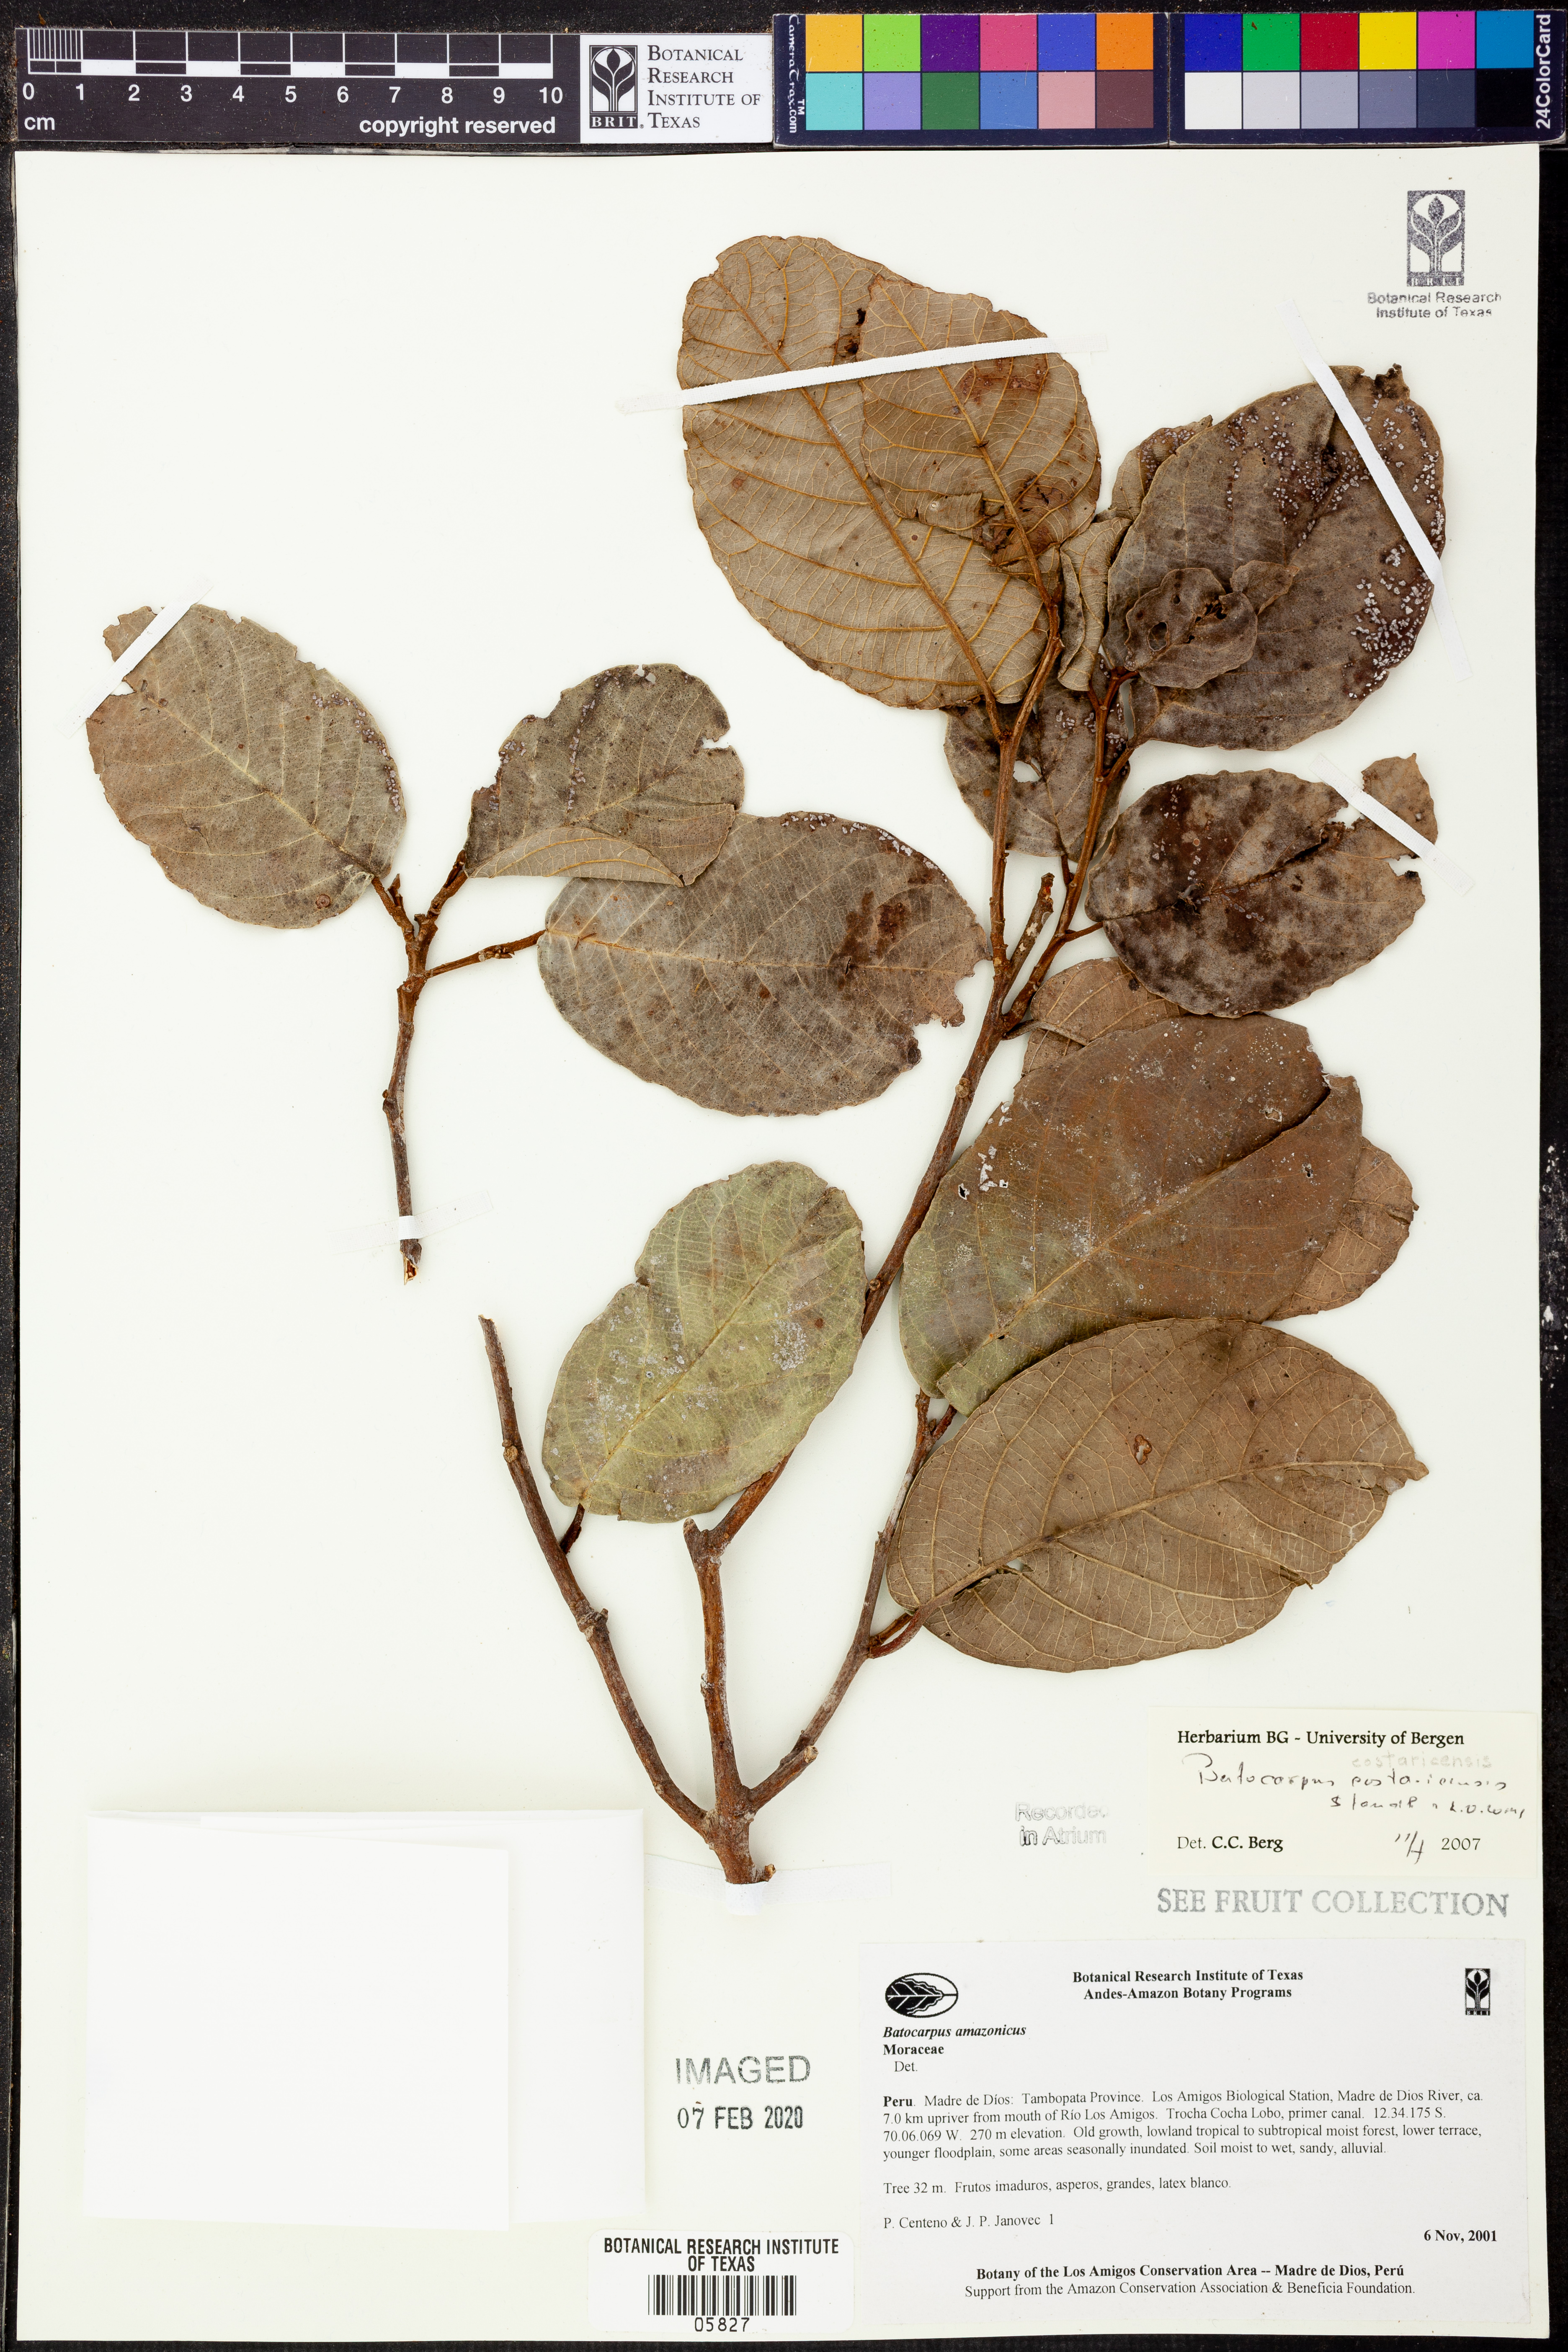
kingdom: Plantae
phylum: Tracheophyta
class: Magnoliopsida
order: Rosales
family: Moraceae
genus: Batocarpus
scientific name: Batocarpus
